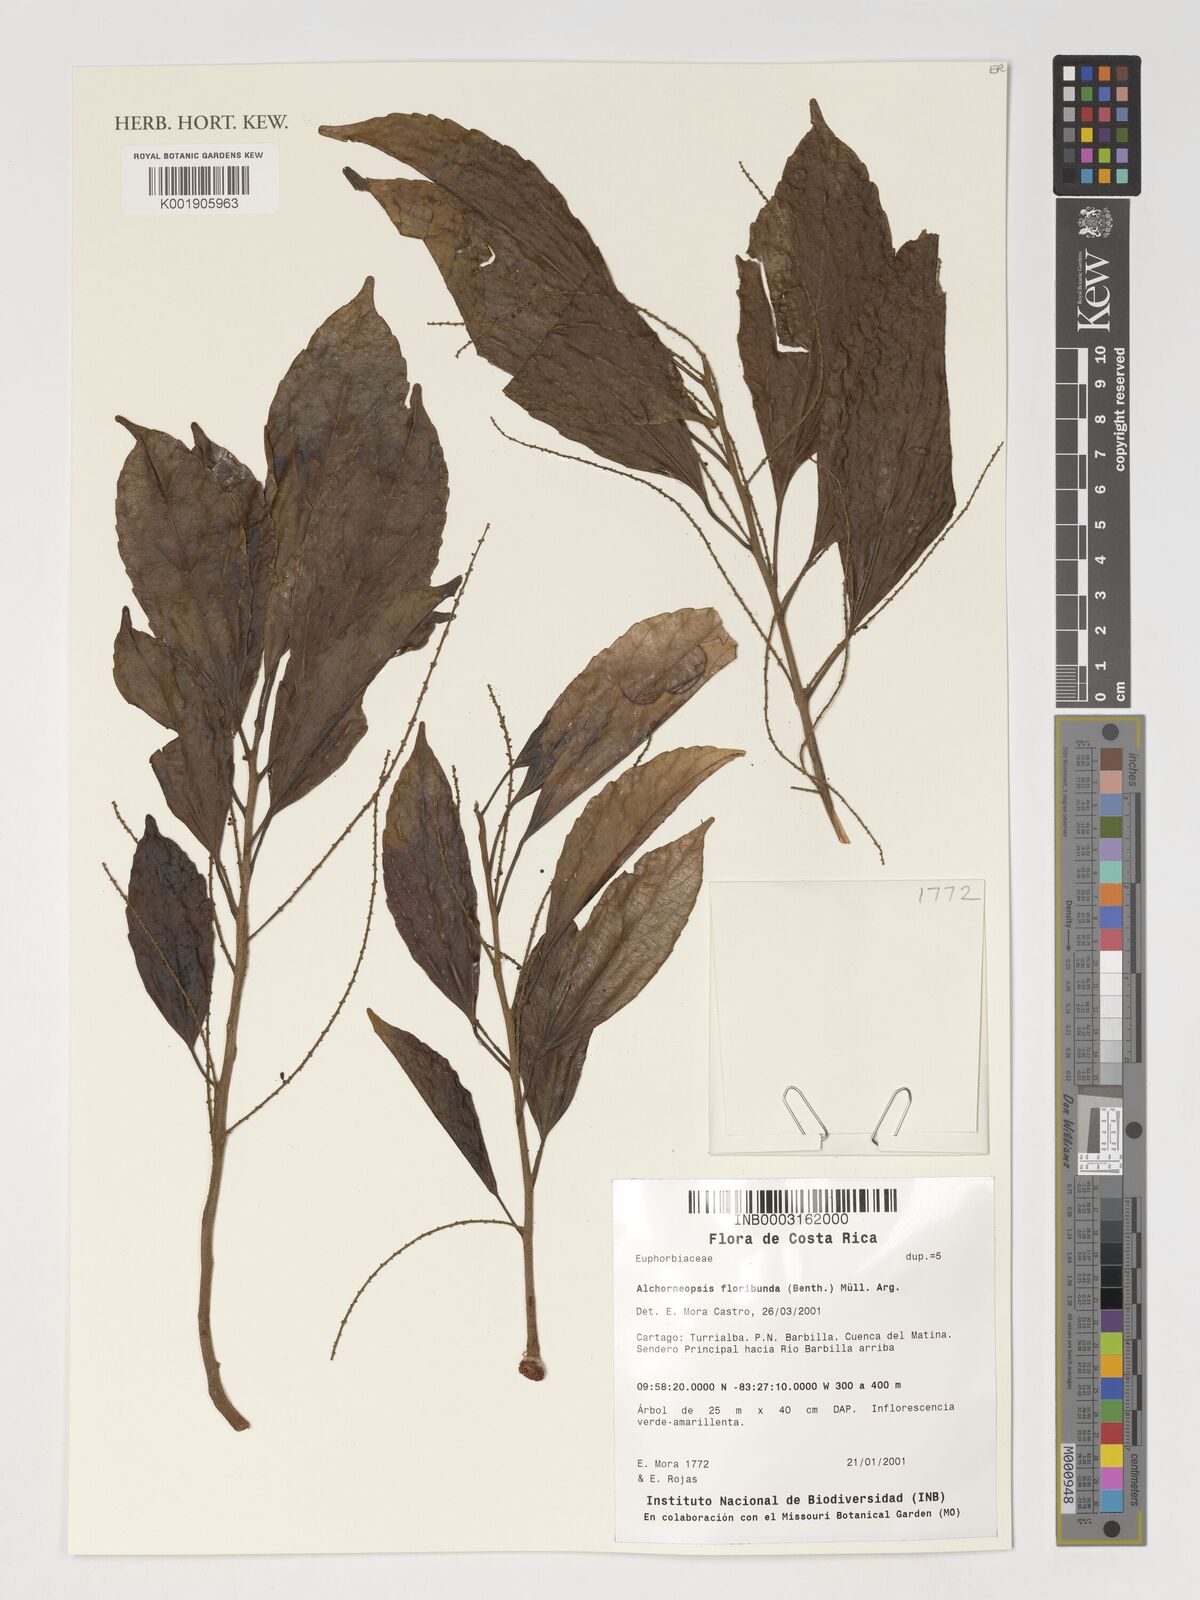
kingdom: Plantae
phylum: Tracheophyta
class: Magnoliopsida
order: Malpighiales
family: Euphorbiaceae
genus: Alchorneopsis
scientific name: Alchorneopsis floribunda
